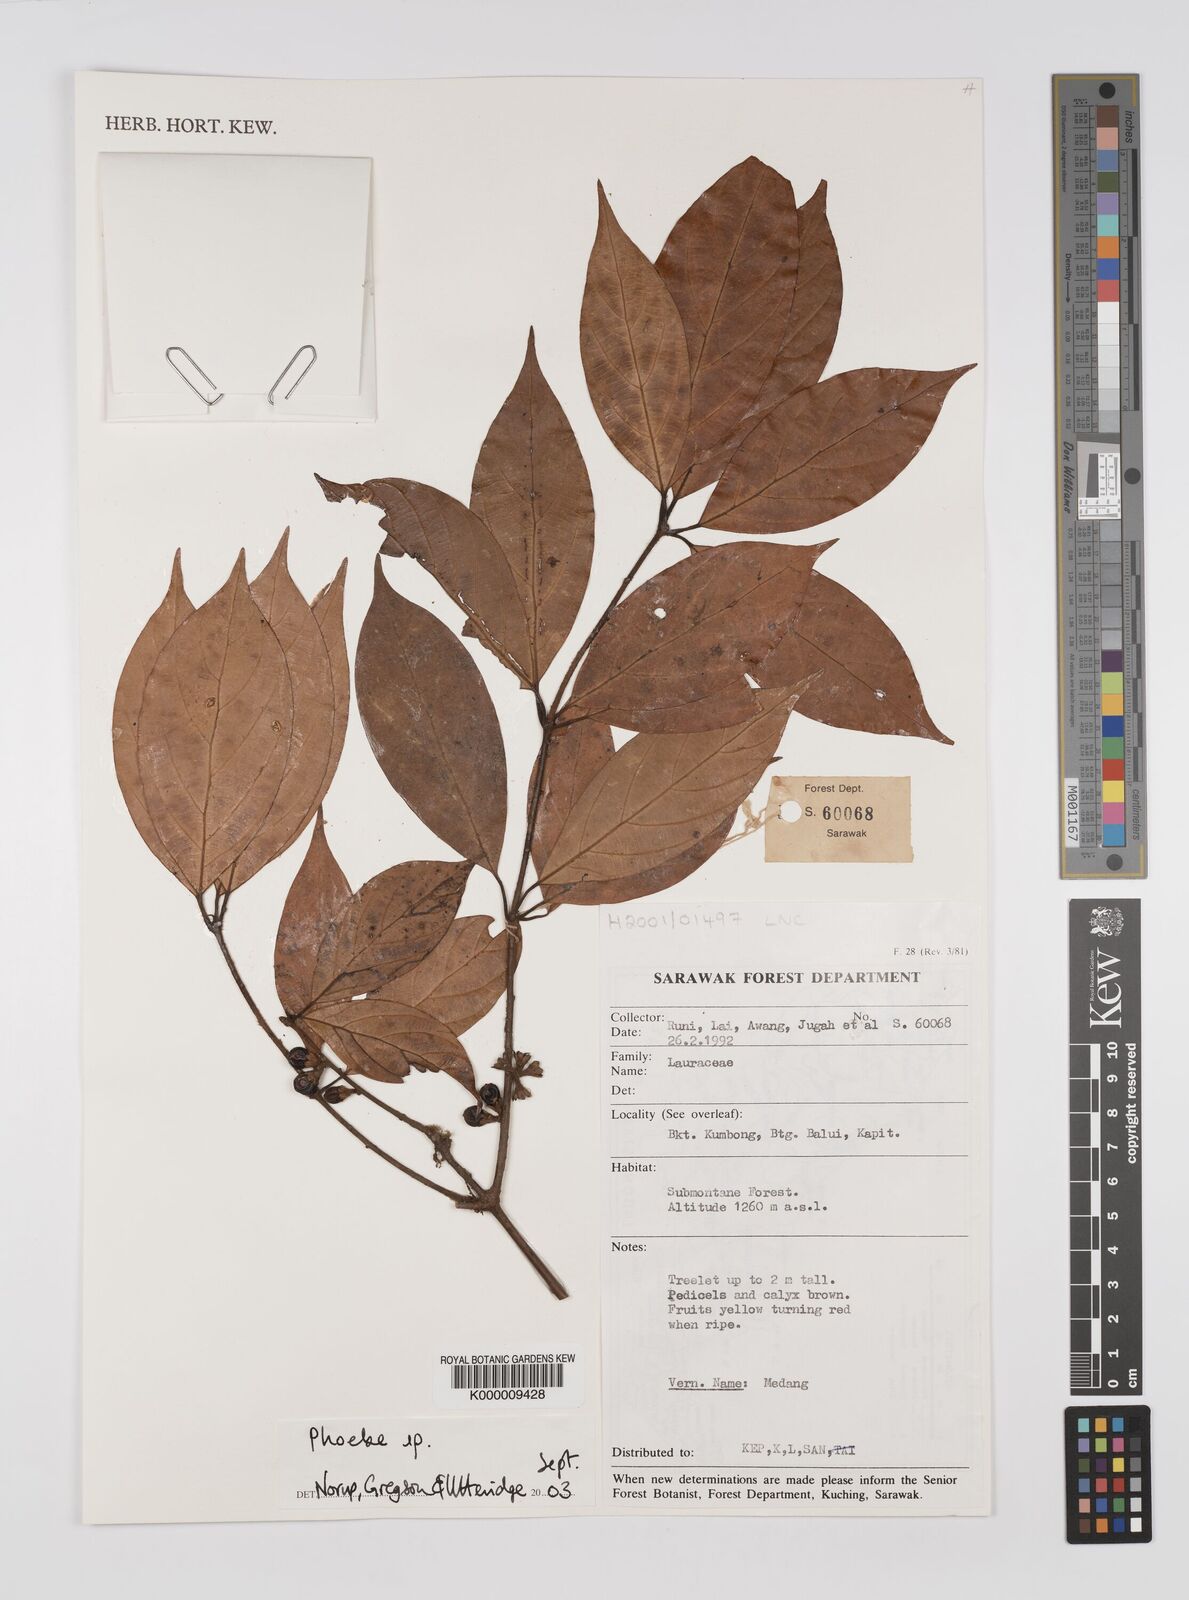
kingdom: Plantae
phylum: Tracheophyta
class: Magnoliopsida
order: Laurales
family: Lauraceae
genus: Phoebe
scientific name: Phoebe
